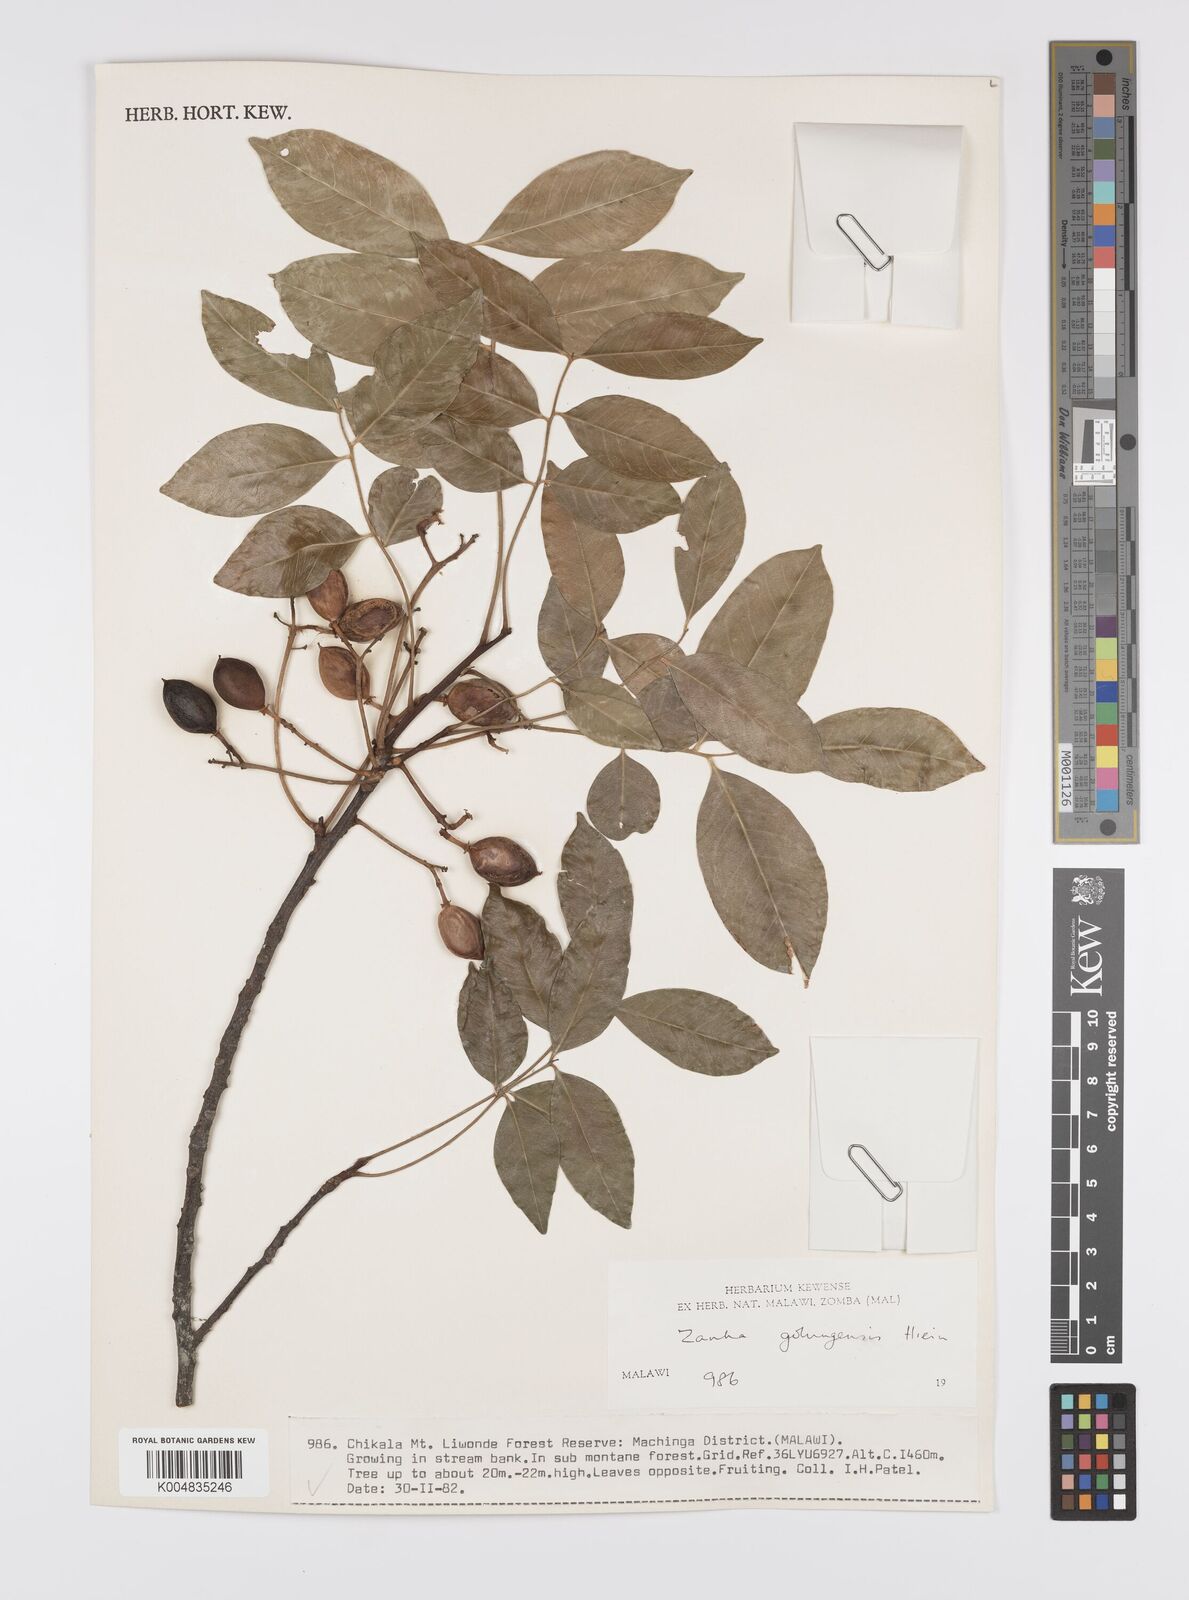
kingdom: Plantae
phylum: Tracheophyta
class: Magnoliopsida
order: Sapindales
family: Sapindaceae
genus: Zanha
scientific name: Zanha golungensis
